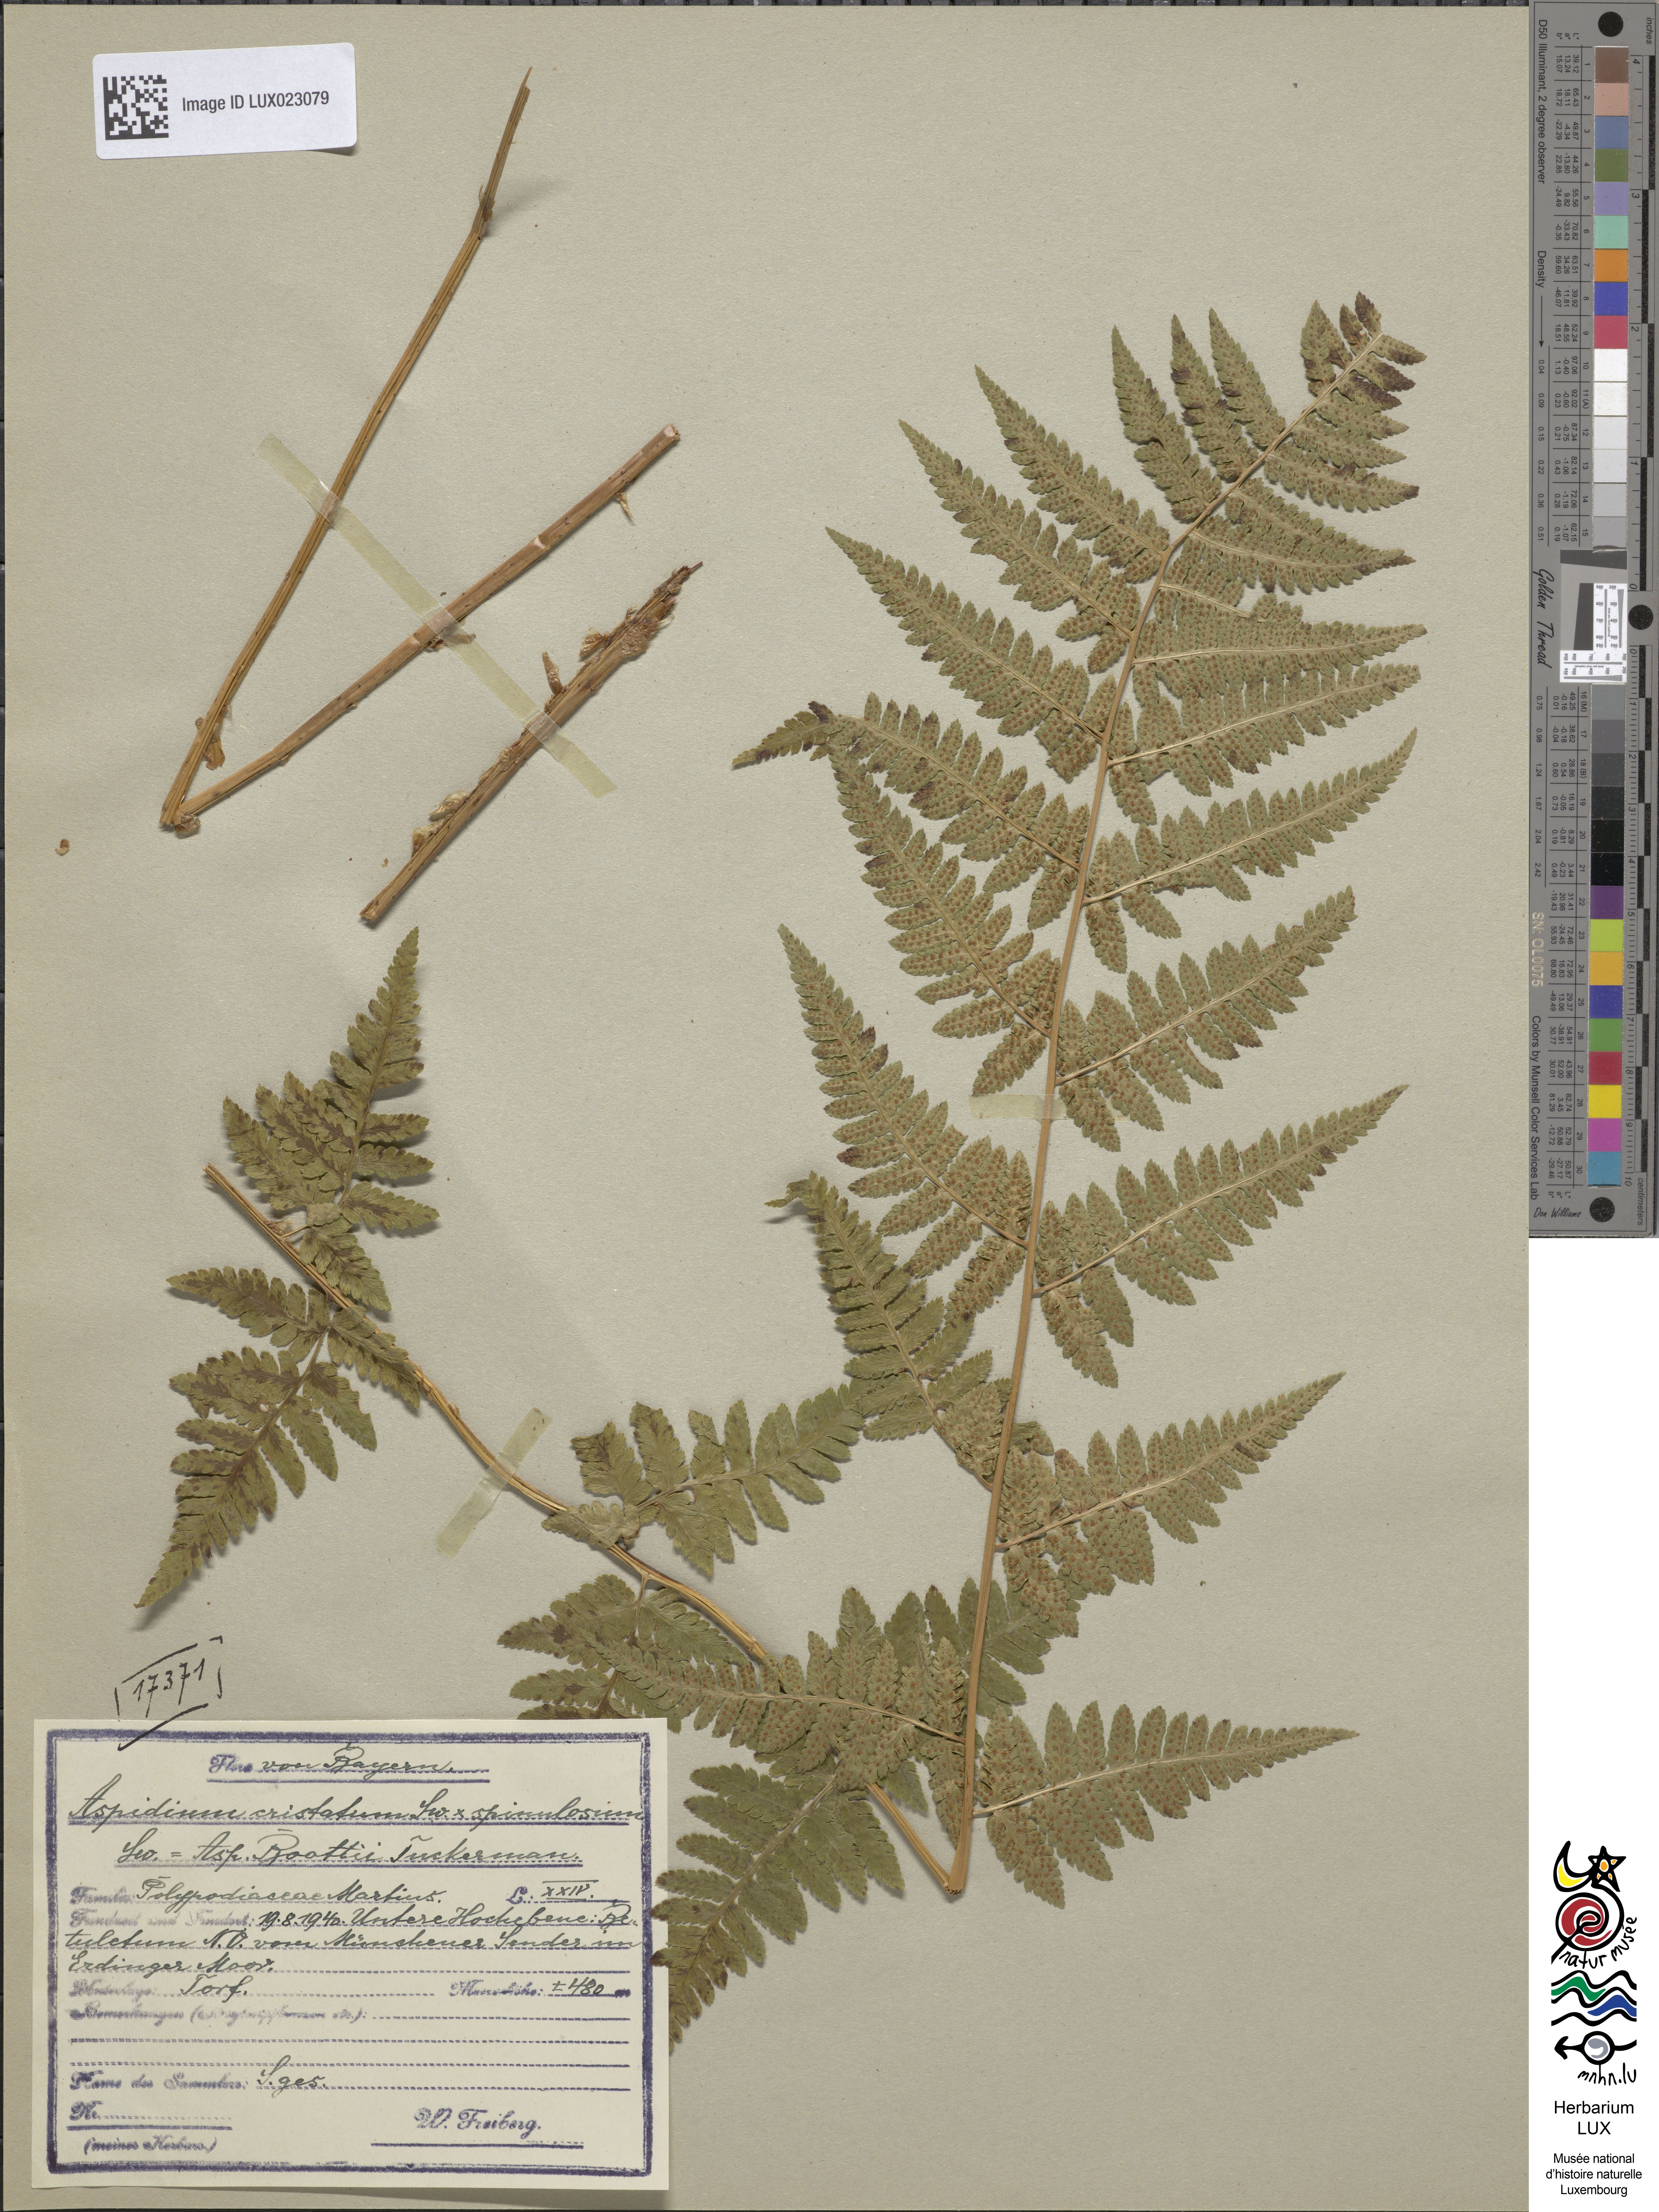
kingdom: Plantae
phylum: Tracheophyta
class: Polypodiopsida
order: Polypodiales
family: Dryopteridaceae
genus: Dryopteris
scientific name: Dryopteris uliginosa
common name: Woodfern
